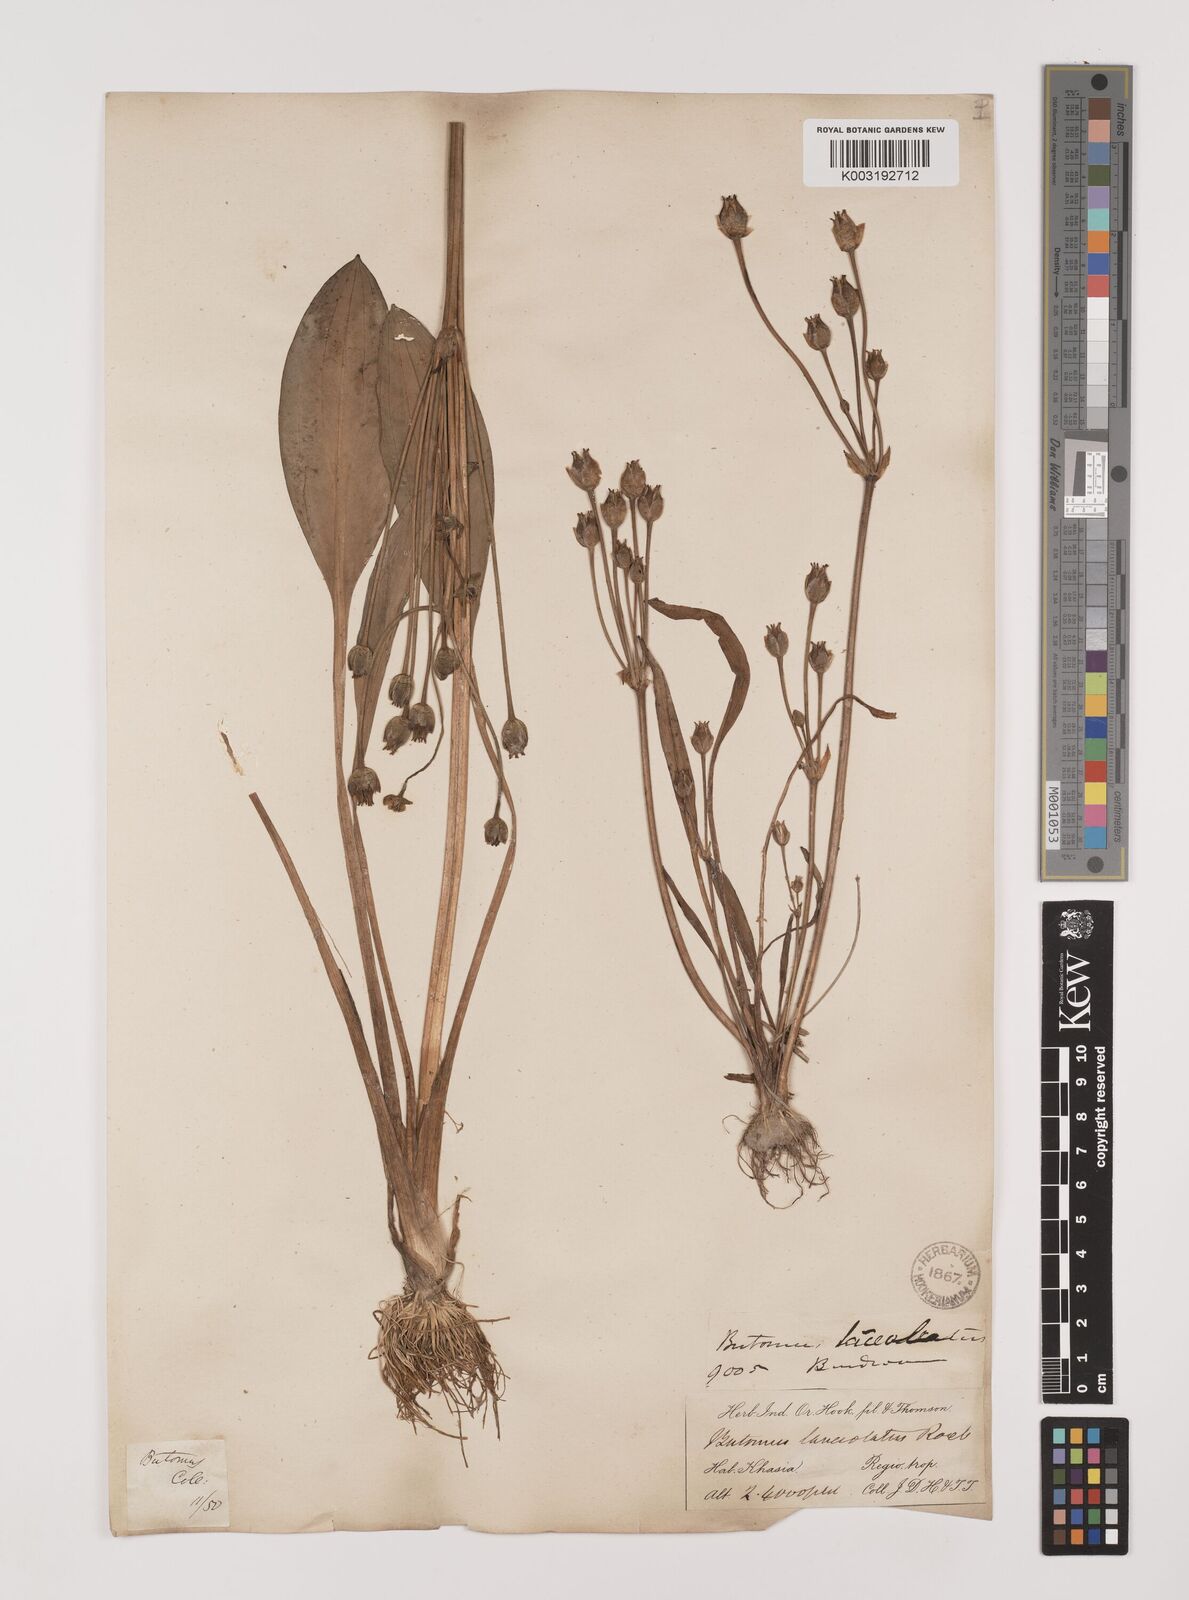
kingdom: Plantae
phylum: Tracheophyta
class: Liliopsida
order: Alismatales
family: Alismataceae
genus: Butomopsis
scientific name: Butomopsis latifolia
